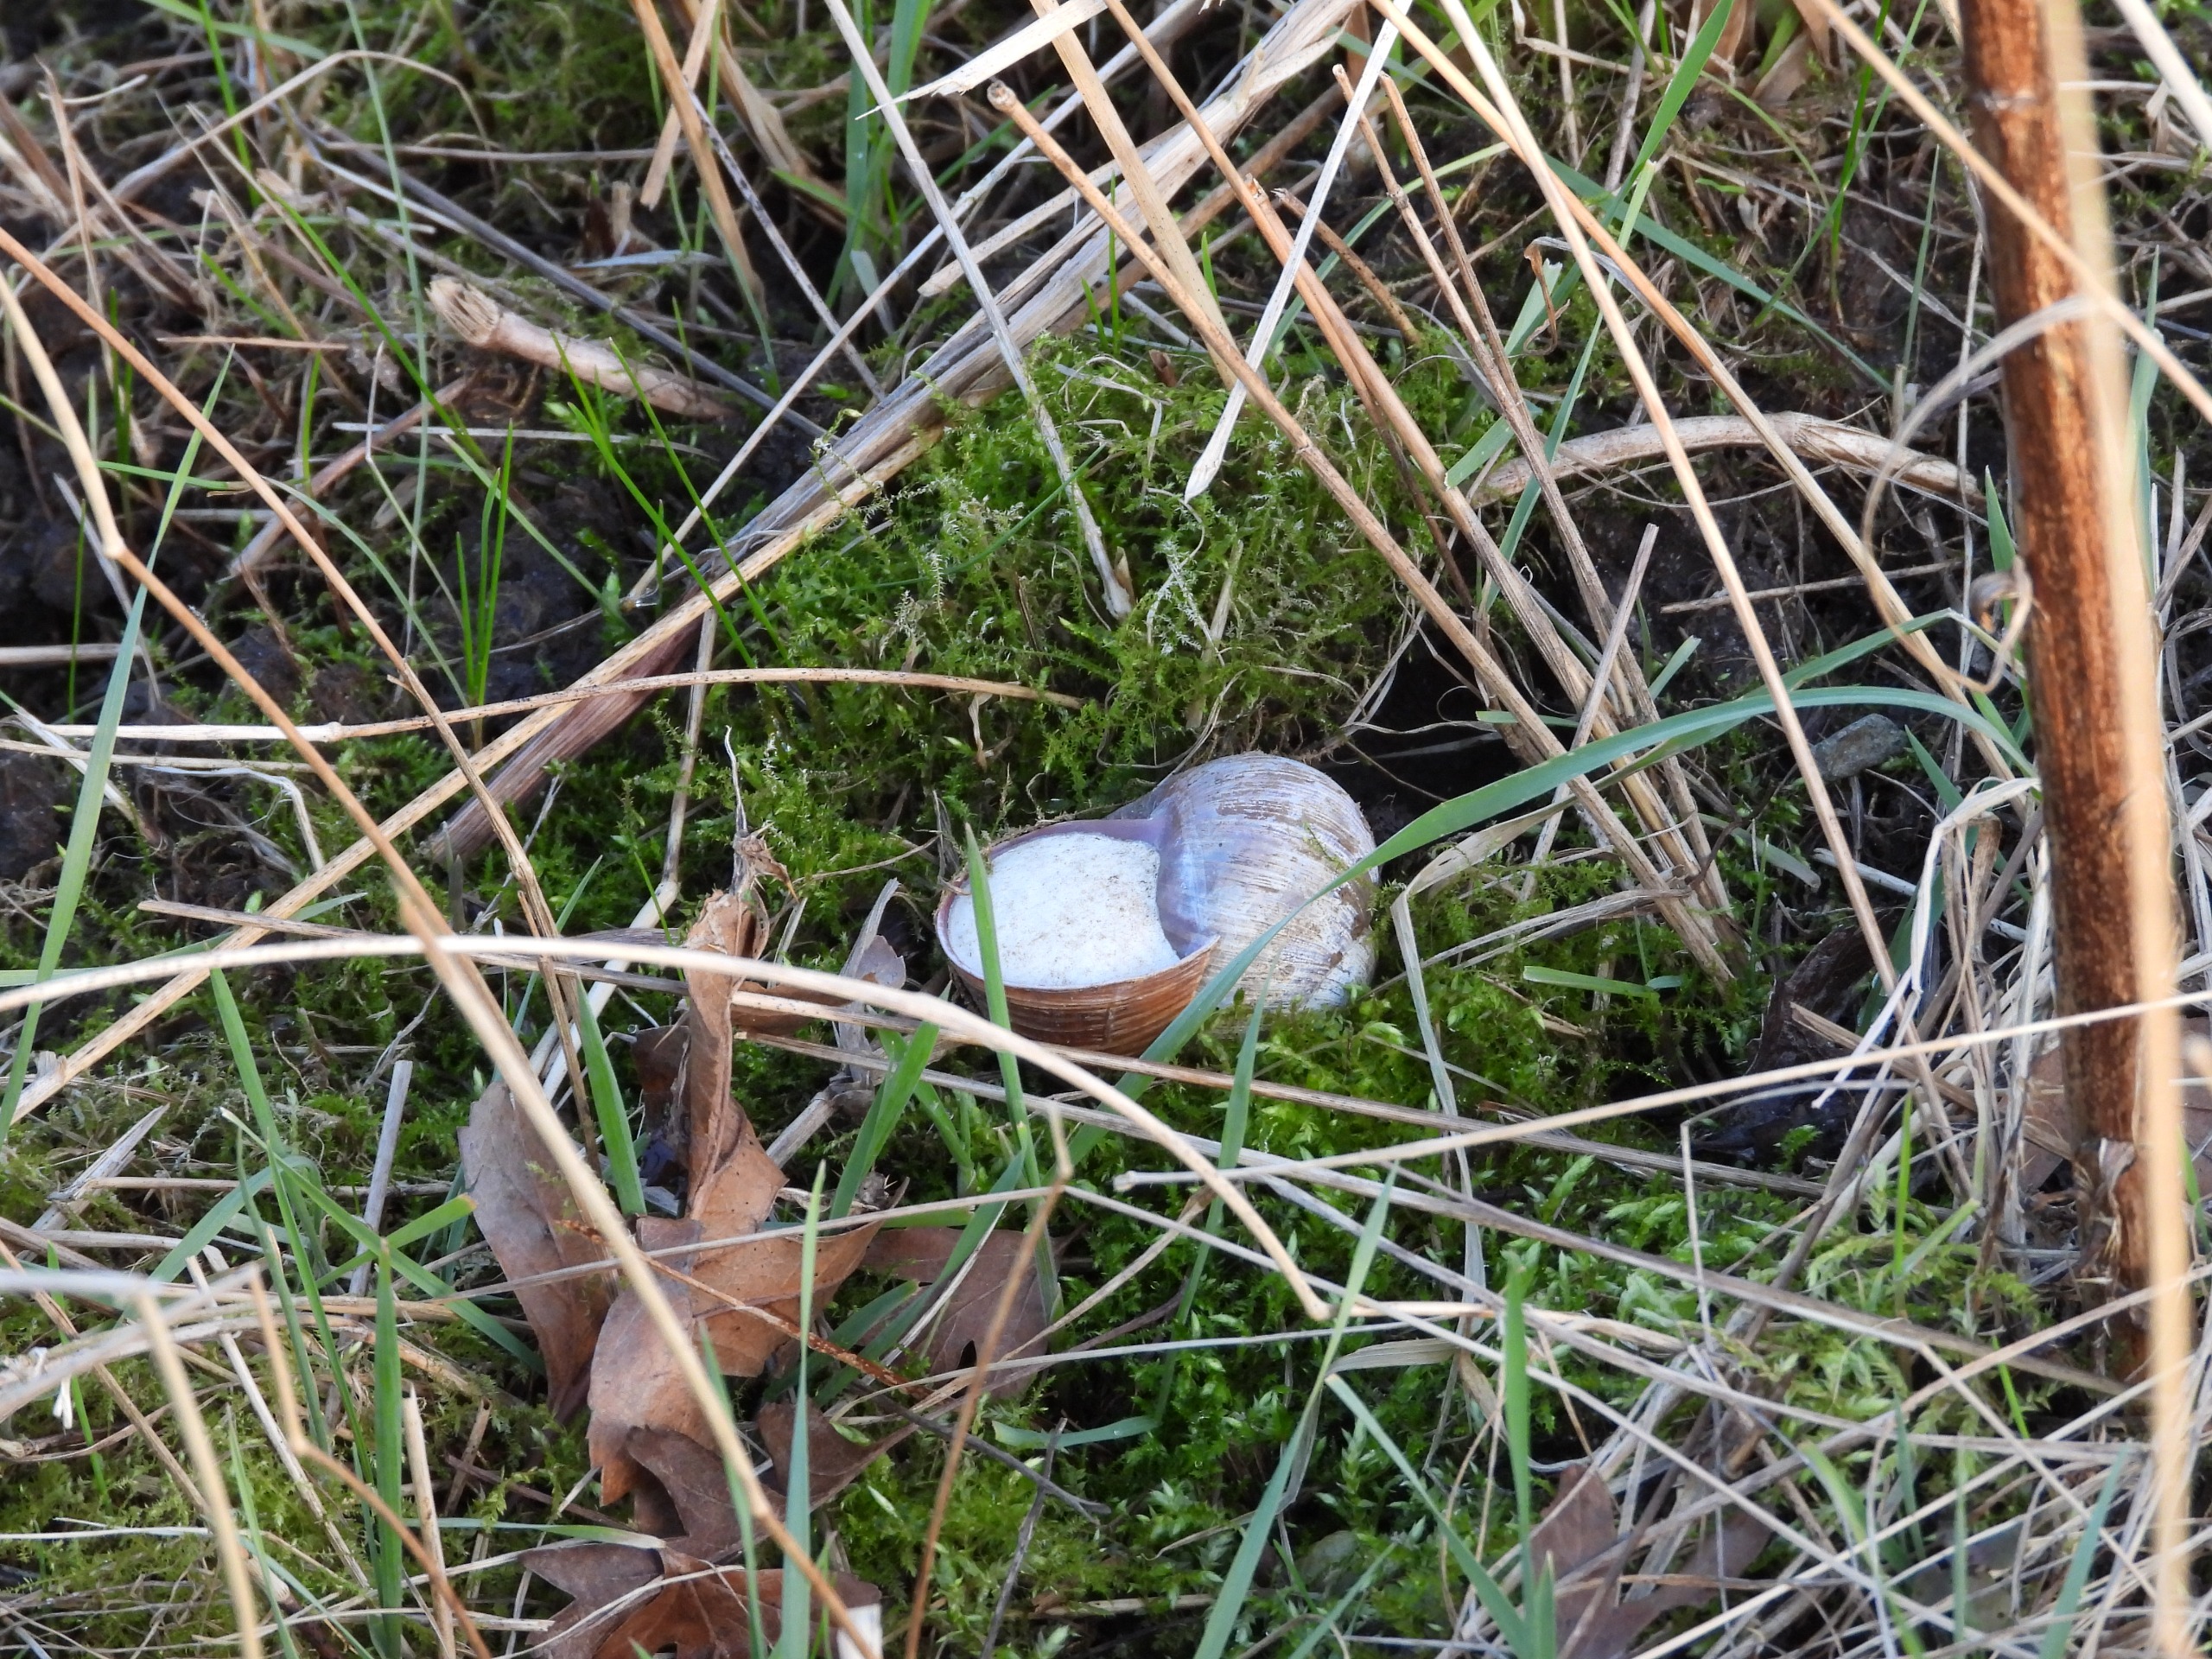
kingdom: Animalia
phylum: Mollusca
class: Gastropoda
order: Stylommatophora
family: Helicidae
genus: Helix
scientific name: Helix pomatia
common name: Vinbjergsnegl
